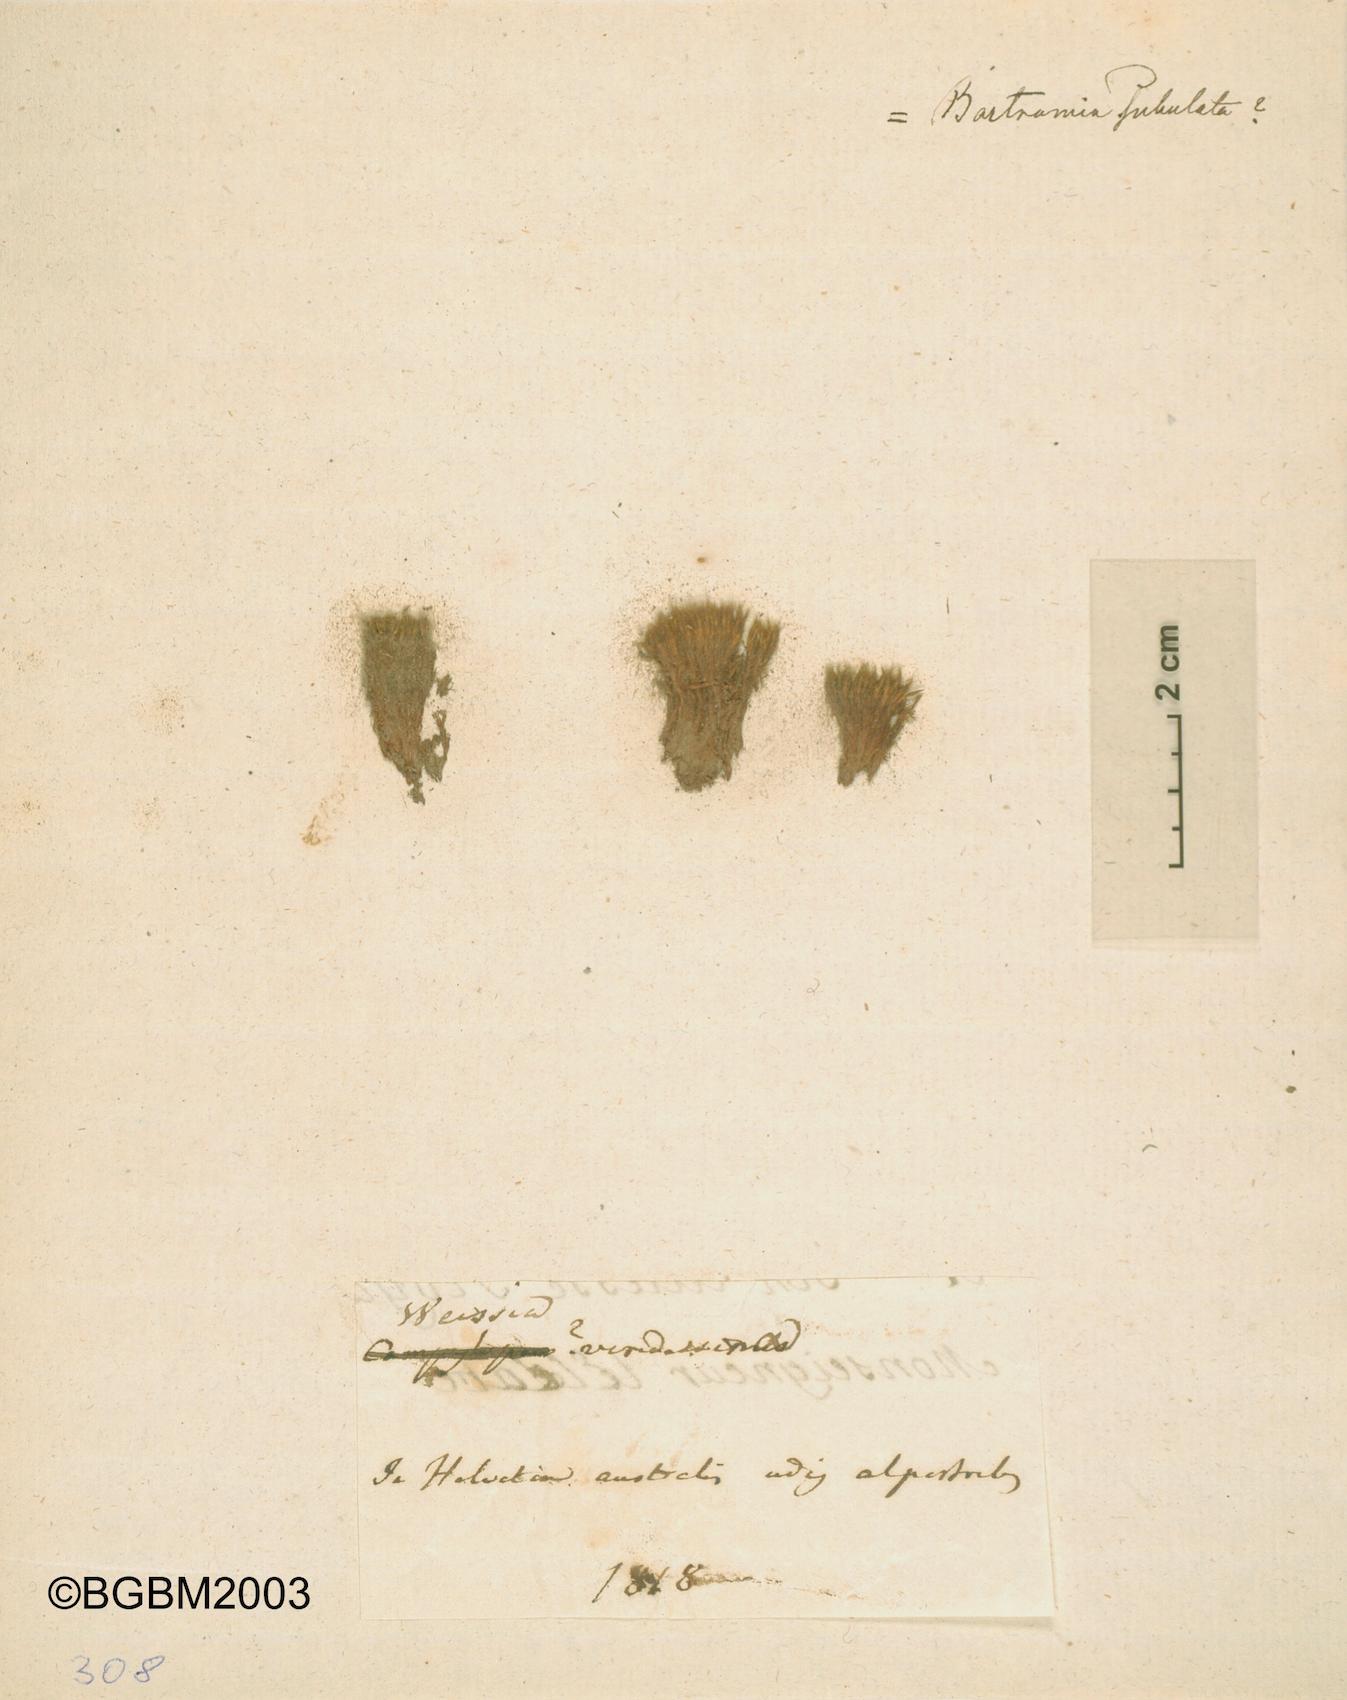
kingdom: Plantae
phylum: Bryophyta
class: Bryopsida
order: Bartramiales
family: Bartramiaceae
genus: Bartramia
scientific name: Bartramia subulata
